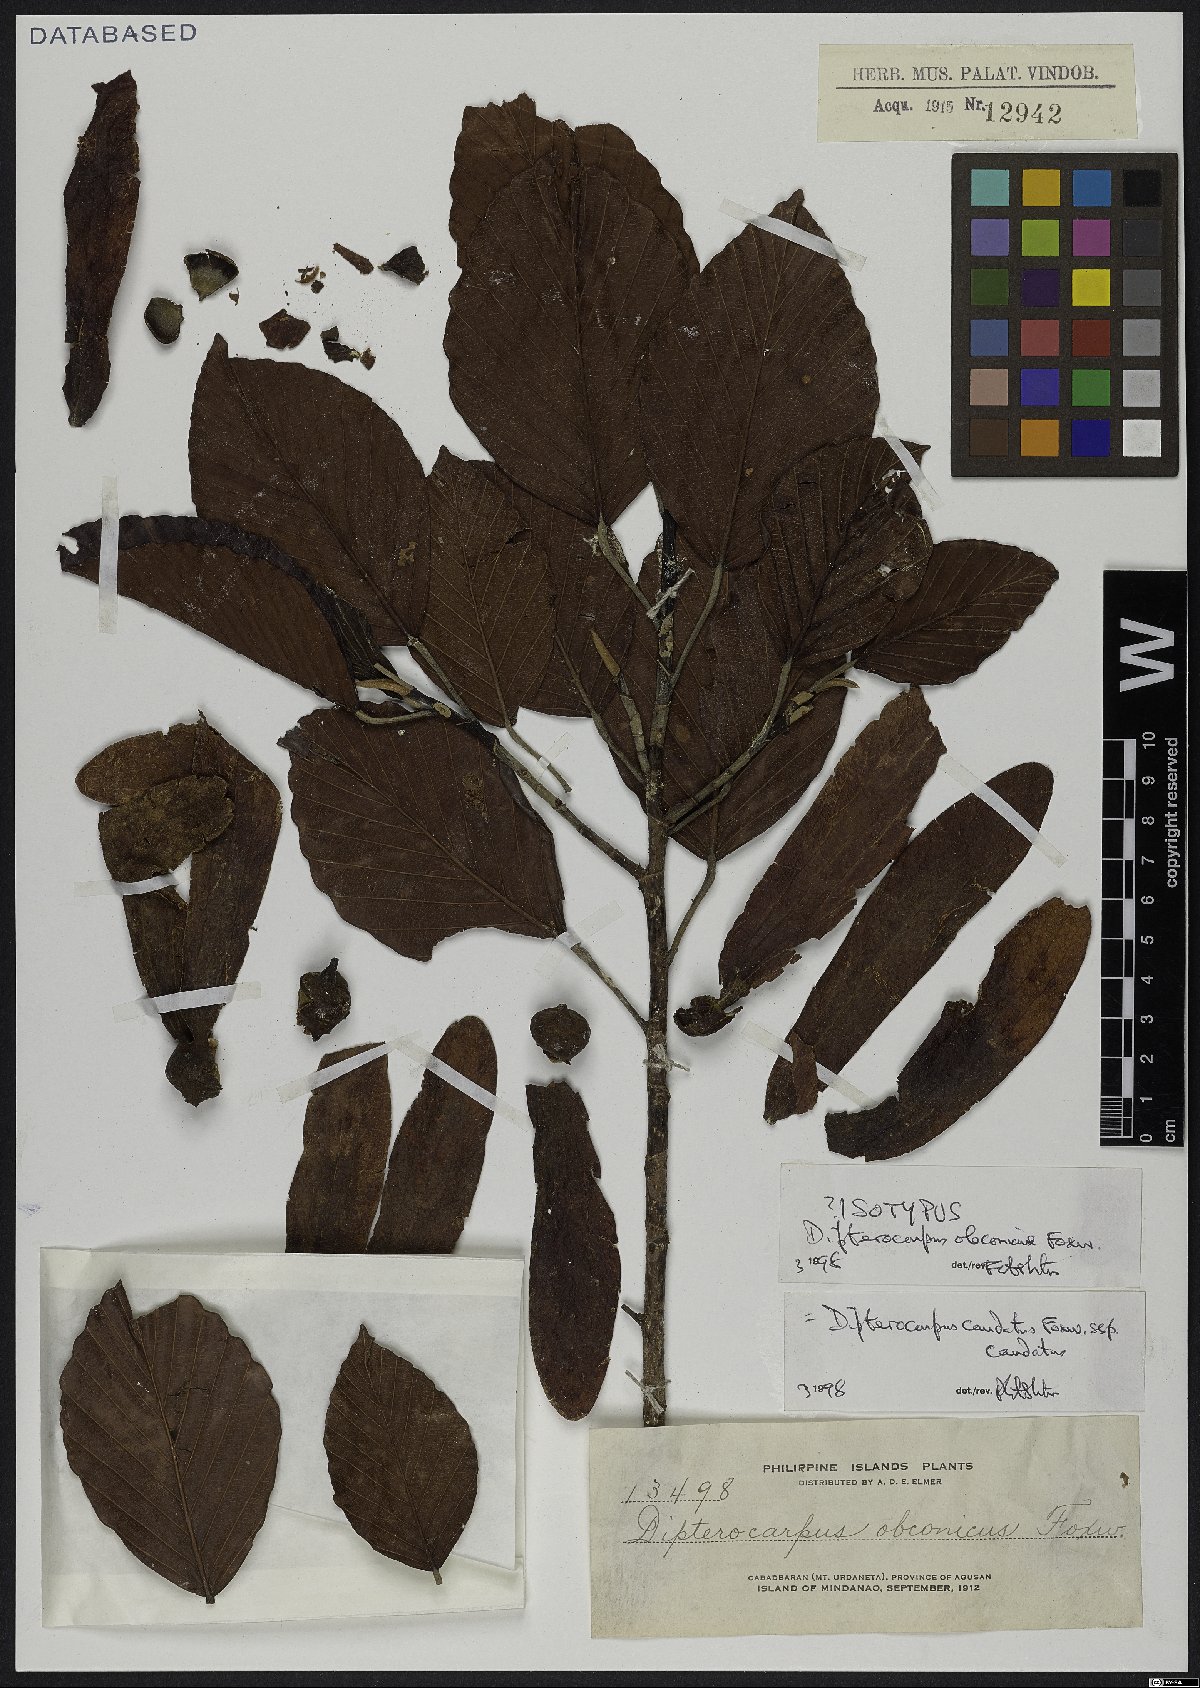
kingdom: Plantae
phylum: Tracheophyta
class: Magnoliopsida
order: Malvales
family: Dipterocarpaceae
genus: Dipterocarpus
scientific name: Dipterocarpus condorensis
